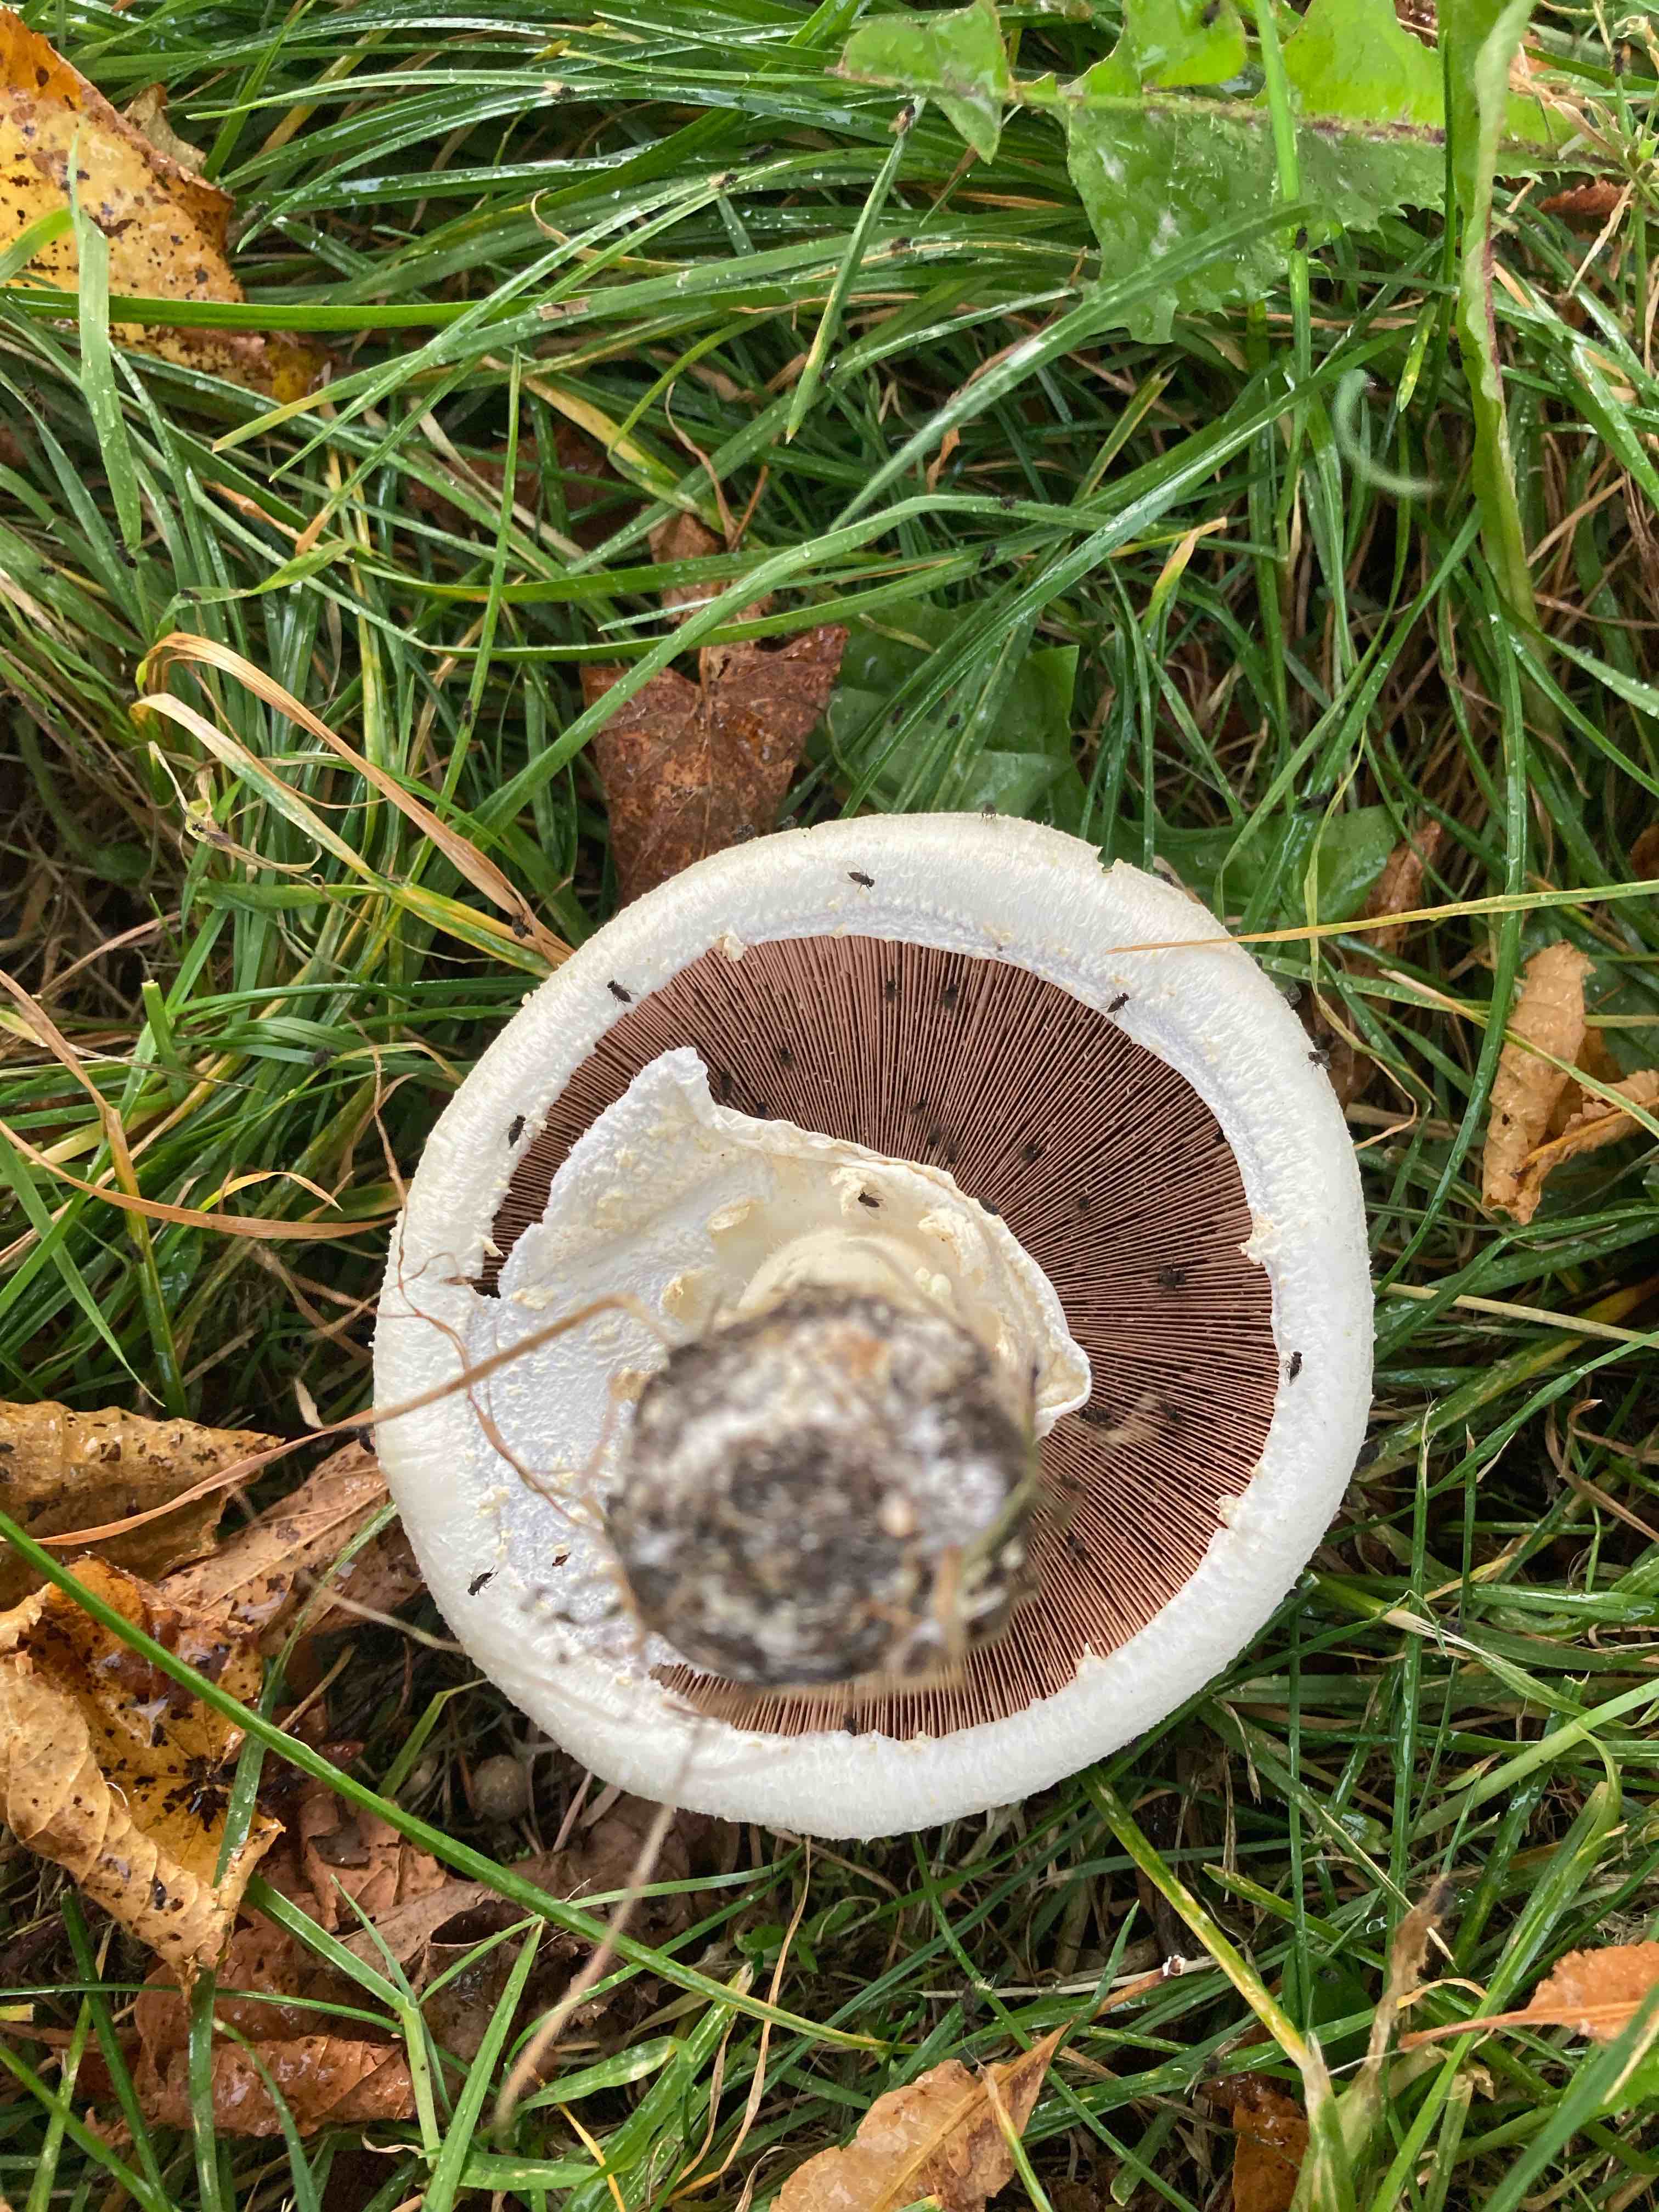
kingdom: Fungi
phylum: Basidiomycota
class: Agaricomycetes
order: Agaricales
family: Agaricaceae
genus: Agaricus
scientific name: Agaricus arvensis
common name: ager-champignon
